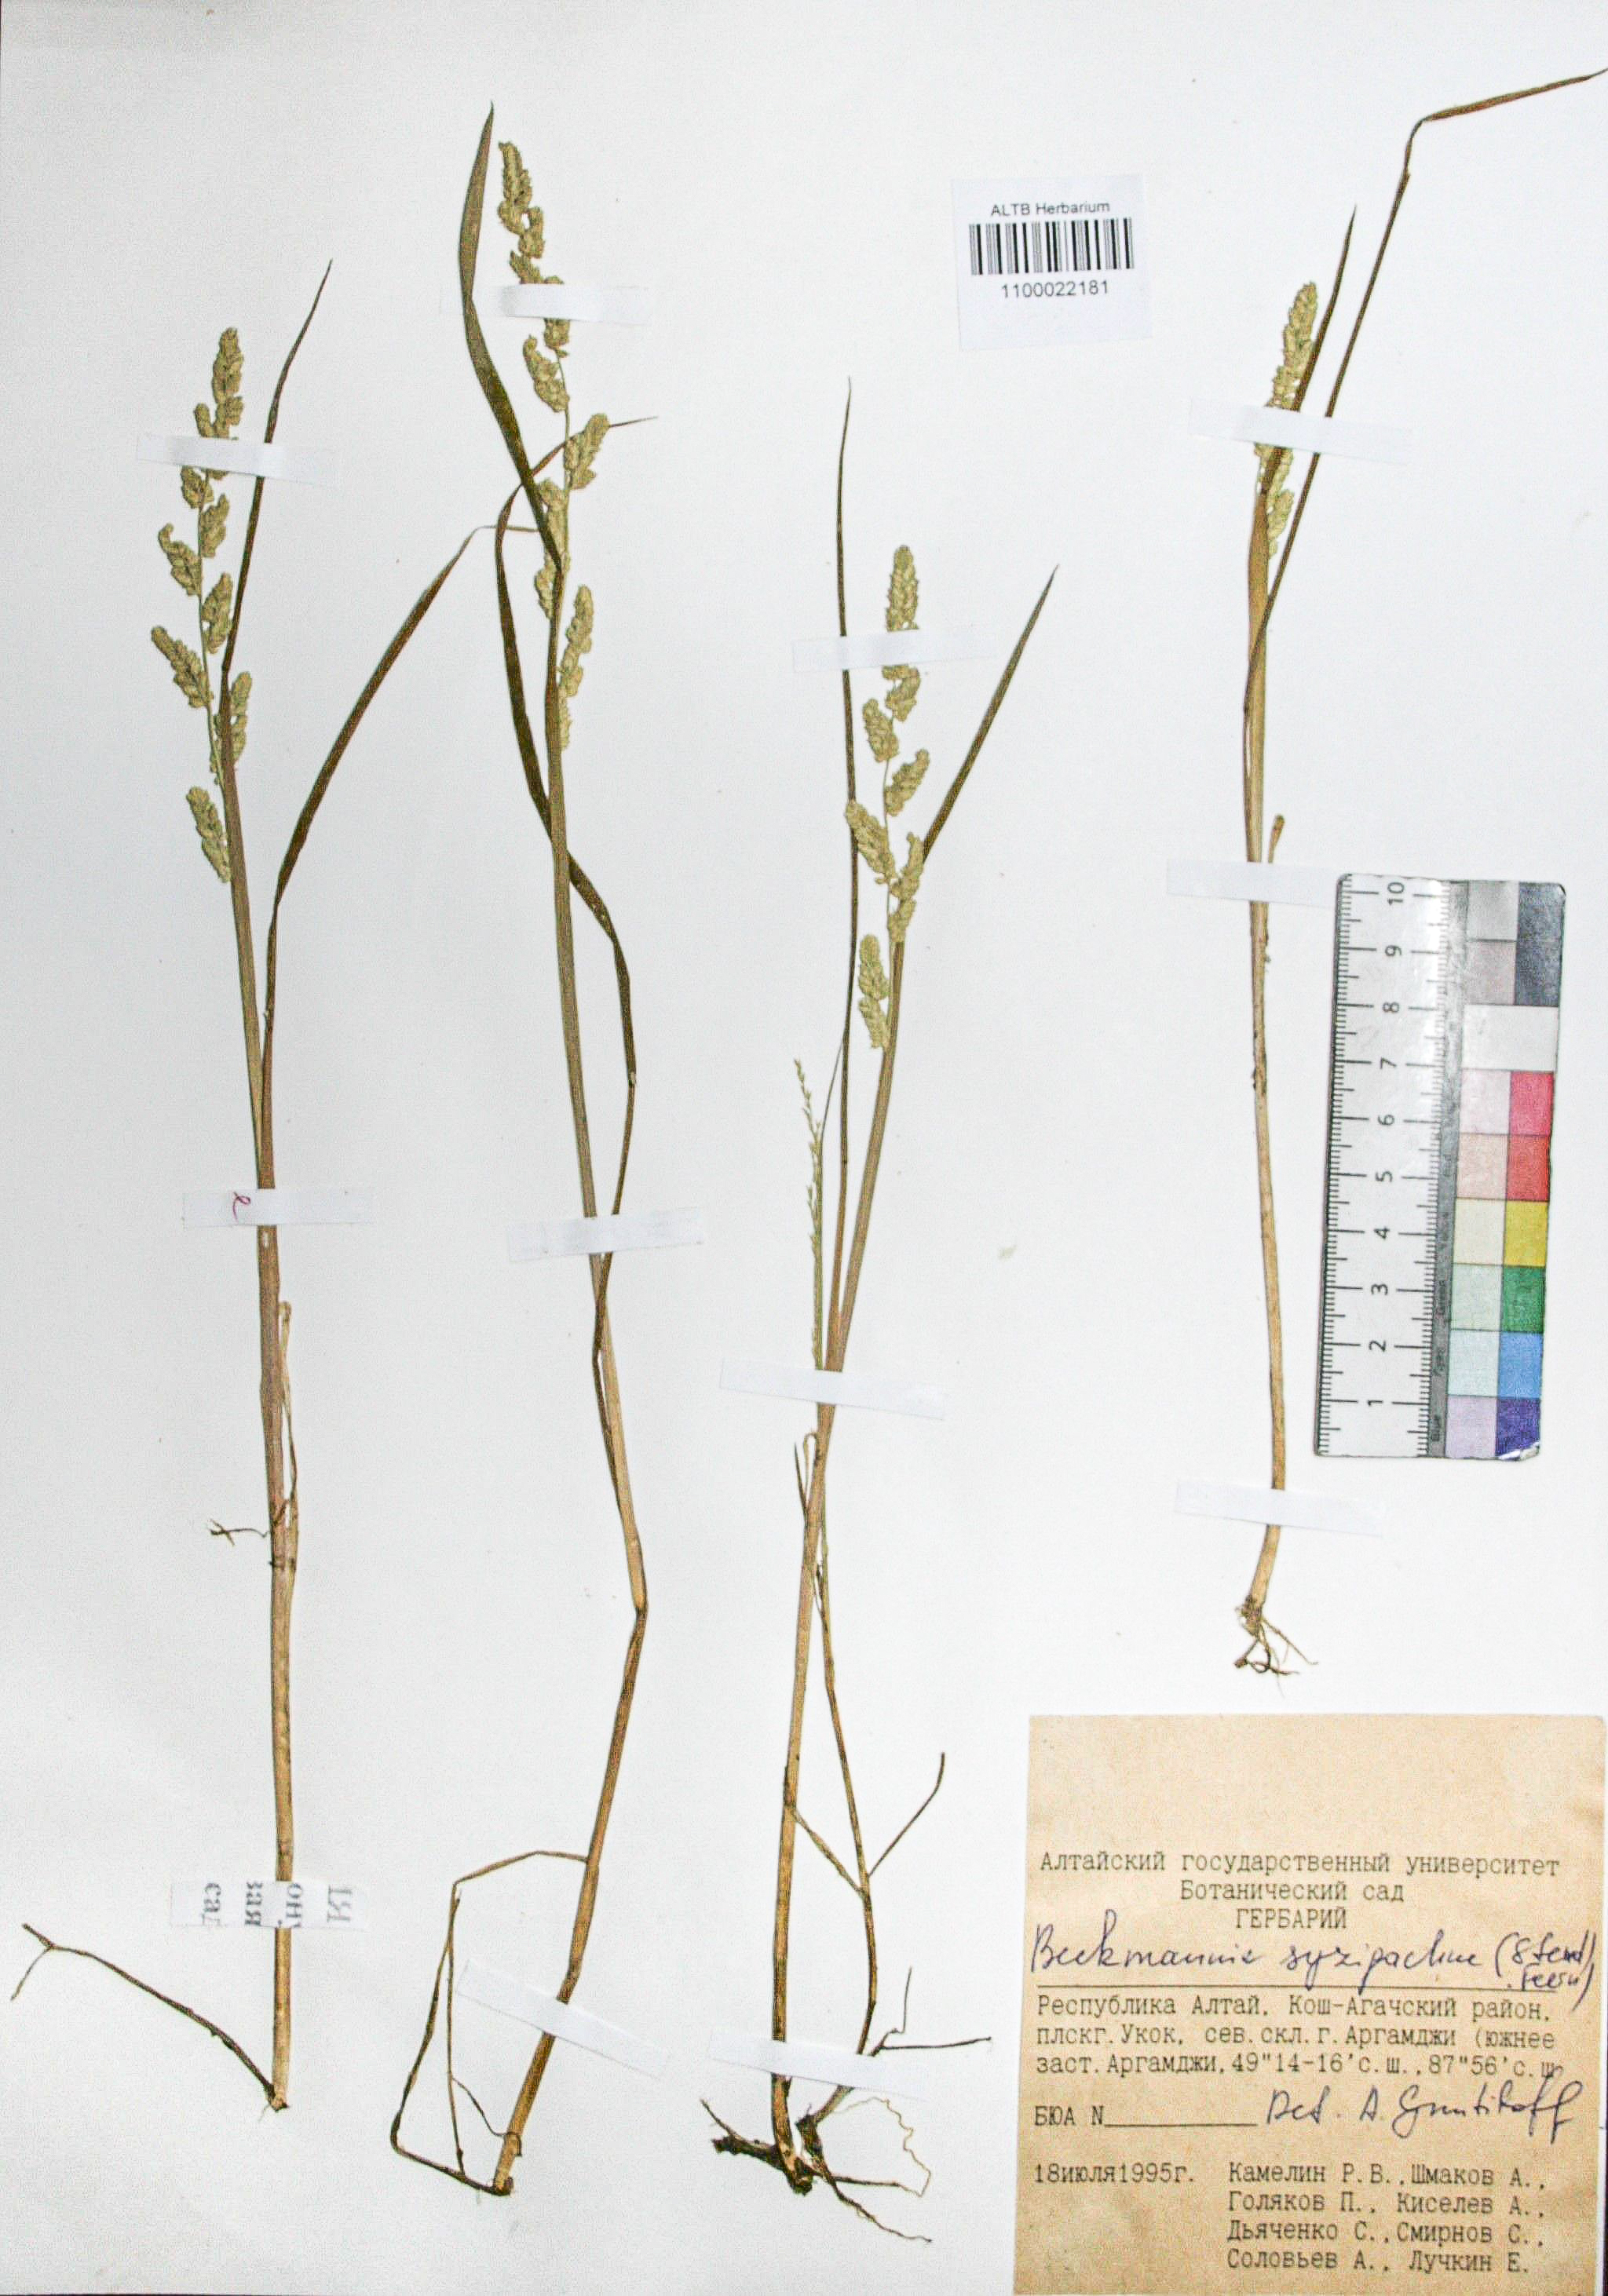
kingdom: Plantae
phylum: Tracheophyta
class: Liliopsida
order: Poales
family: Poaceae
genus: Beckmannia
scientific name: Beckmannia syzigachne
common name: American slough-grass
